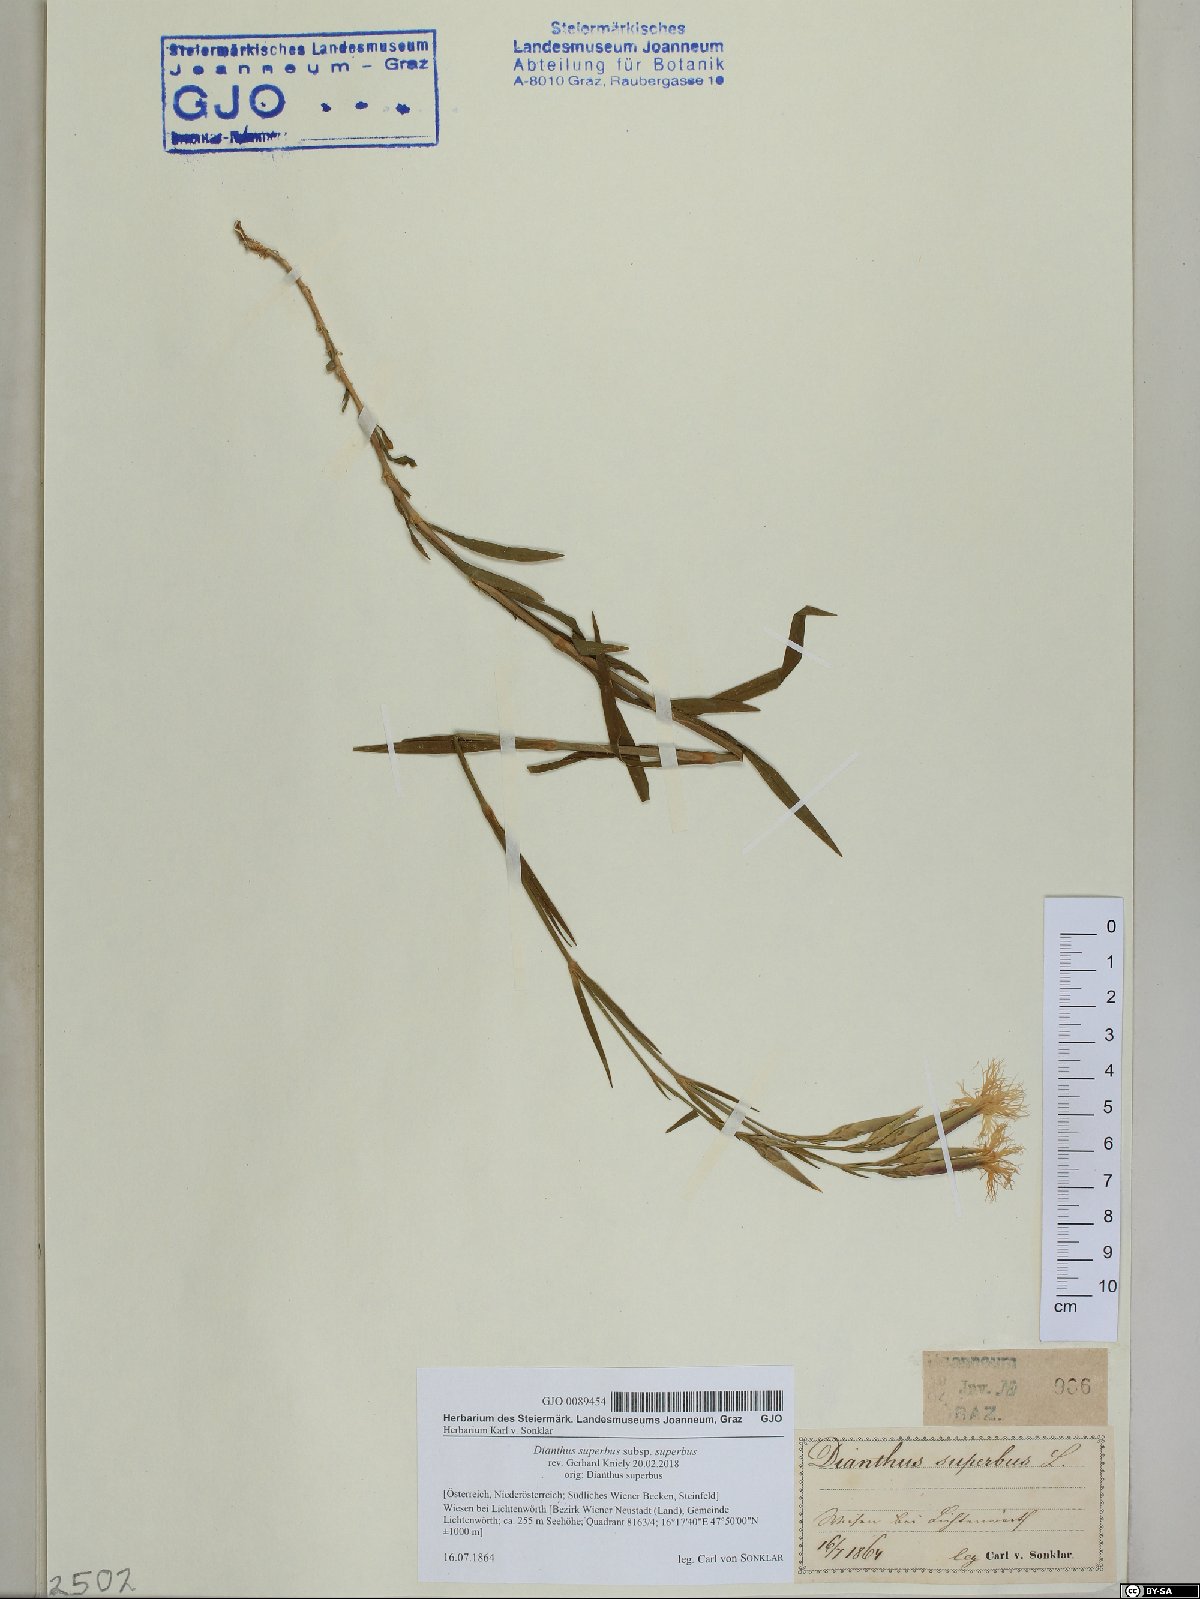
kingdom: Plantae
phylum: Tracheophyta
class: Magnoliopsida
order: Caryophyllales
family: Caryophyllaceae
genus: Dianthus
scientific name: Dianthus superbus
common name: Fringed pink
